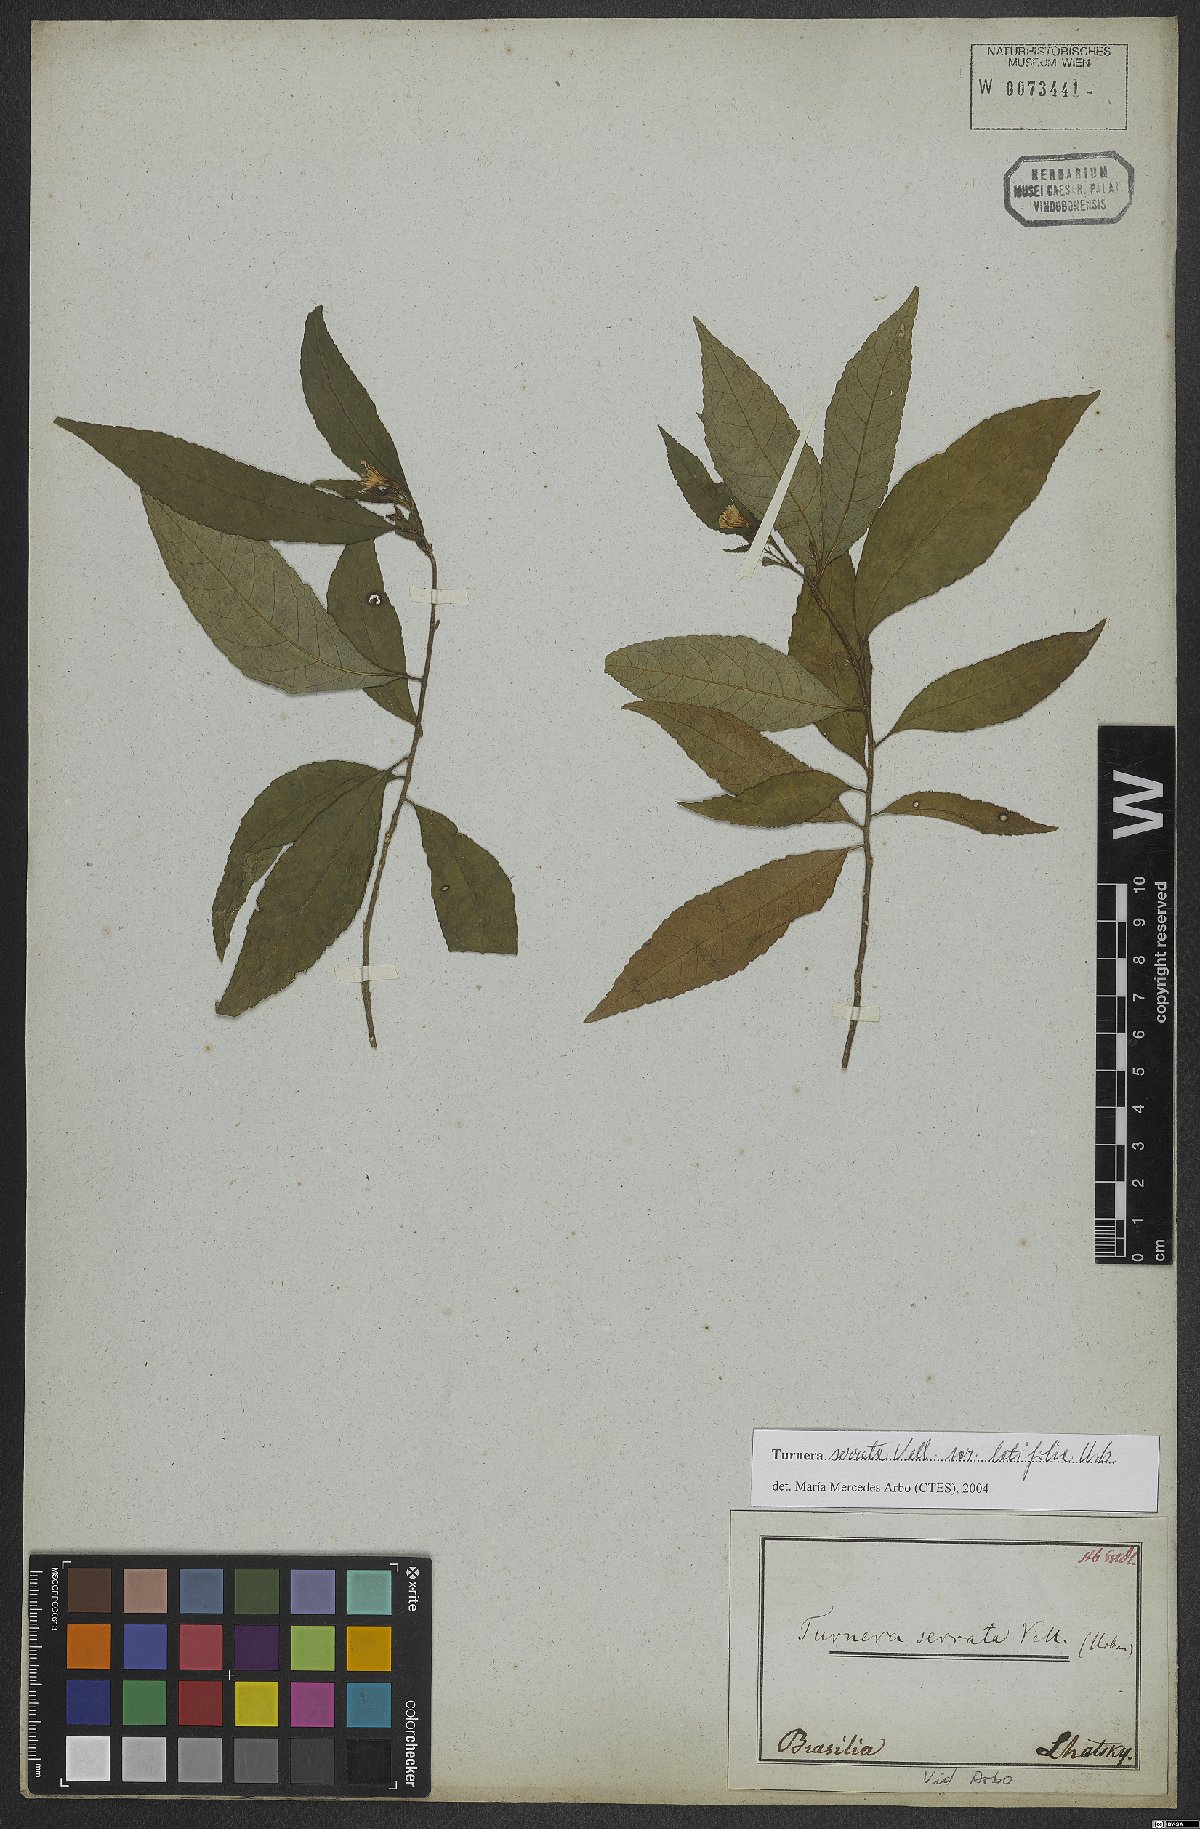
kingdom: Plantae
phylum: Tracheophyta
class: Magnoliopsida
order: Malpighiales
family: Turneraceae
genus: Turnera
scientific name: Turnera serrata
